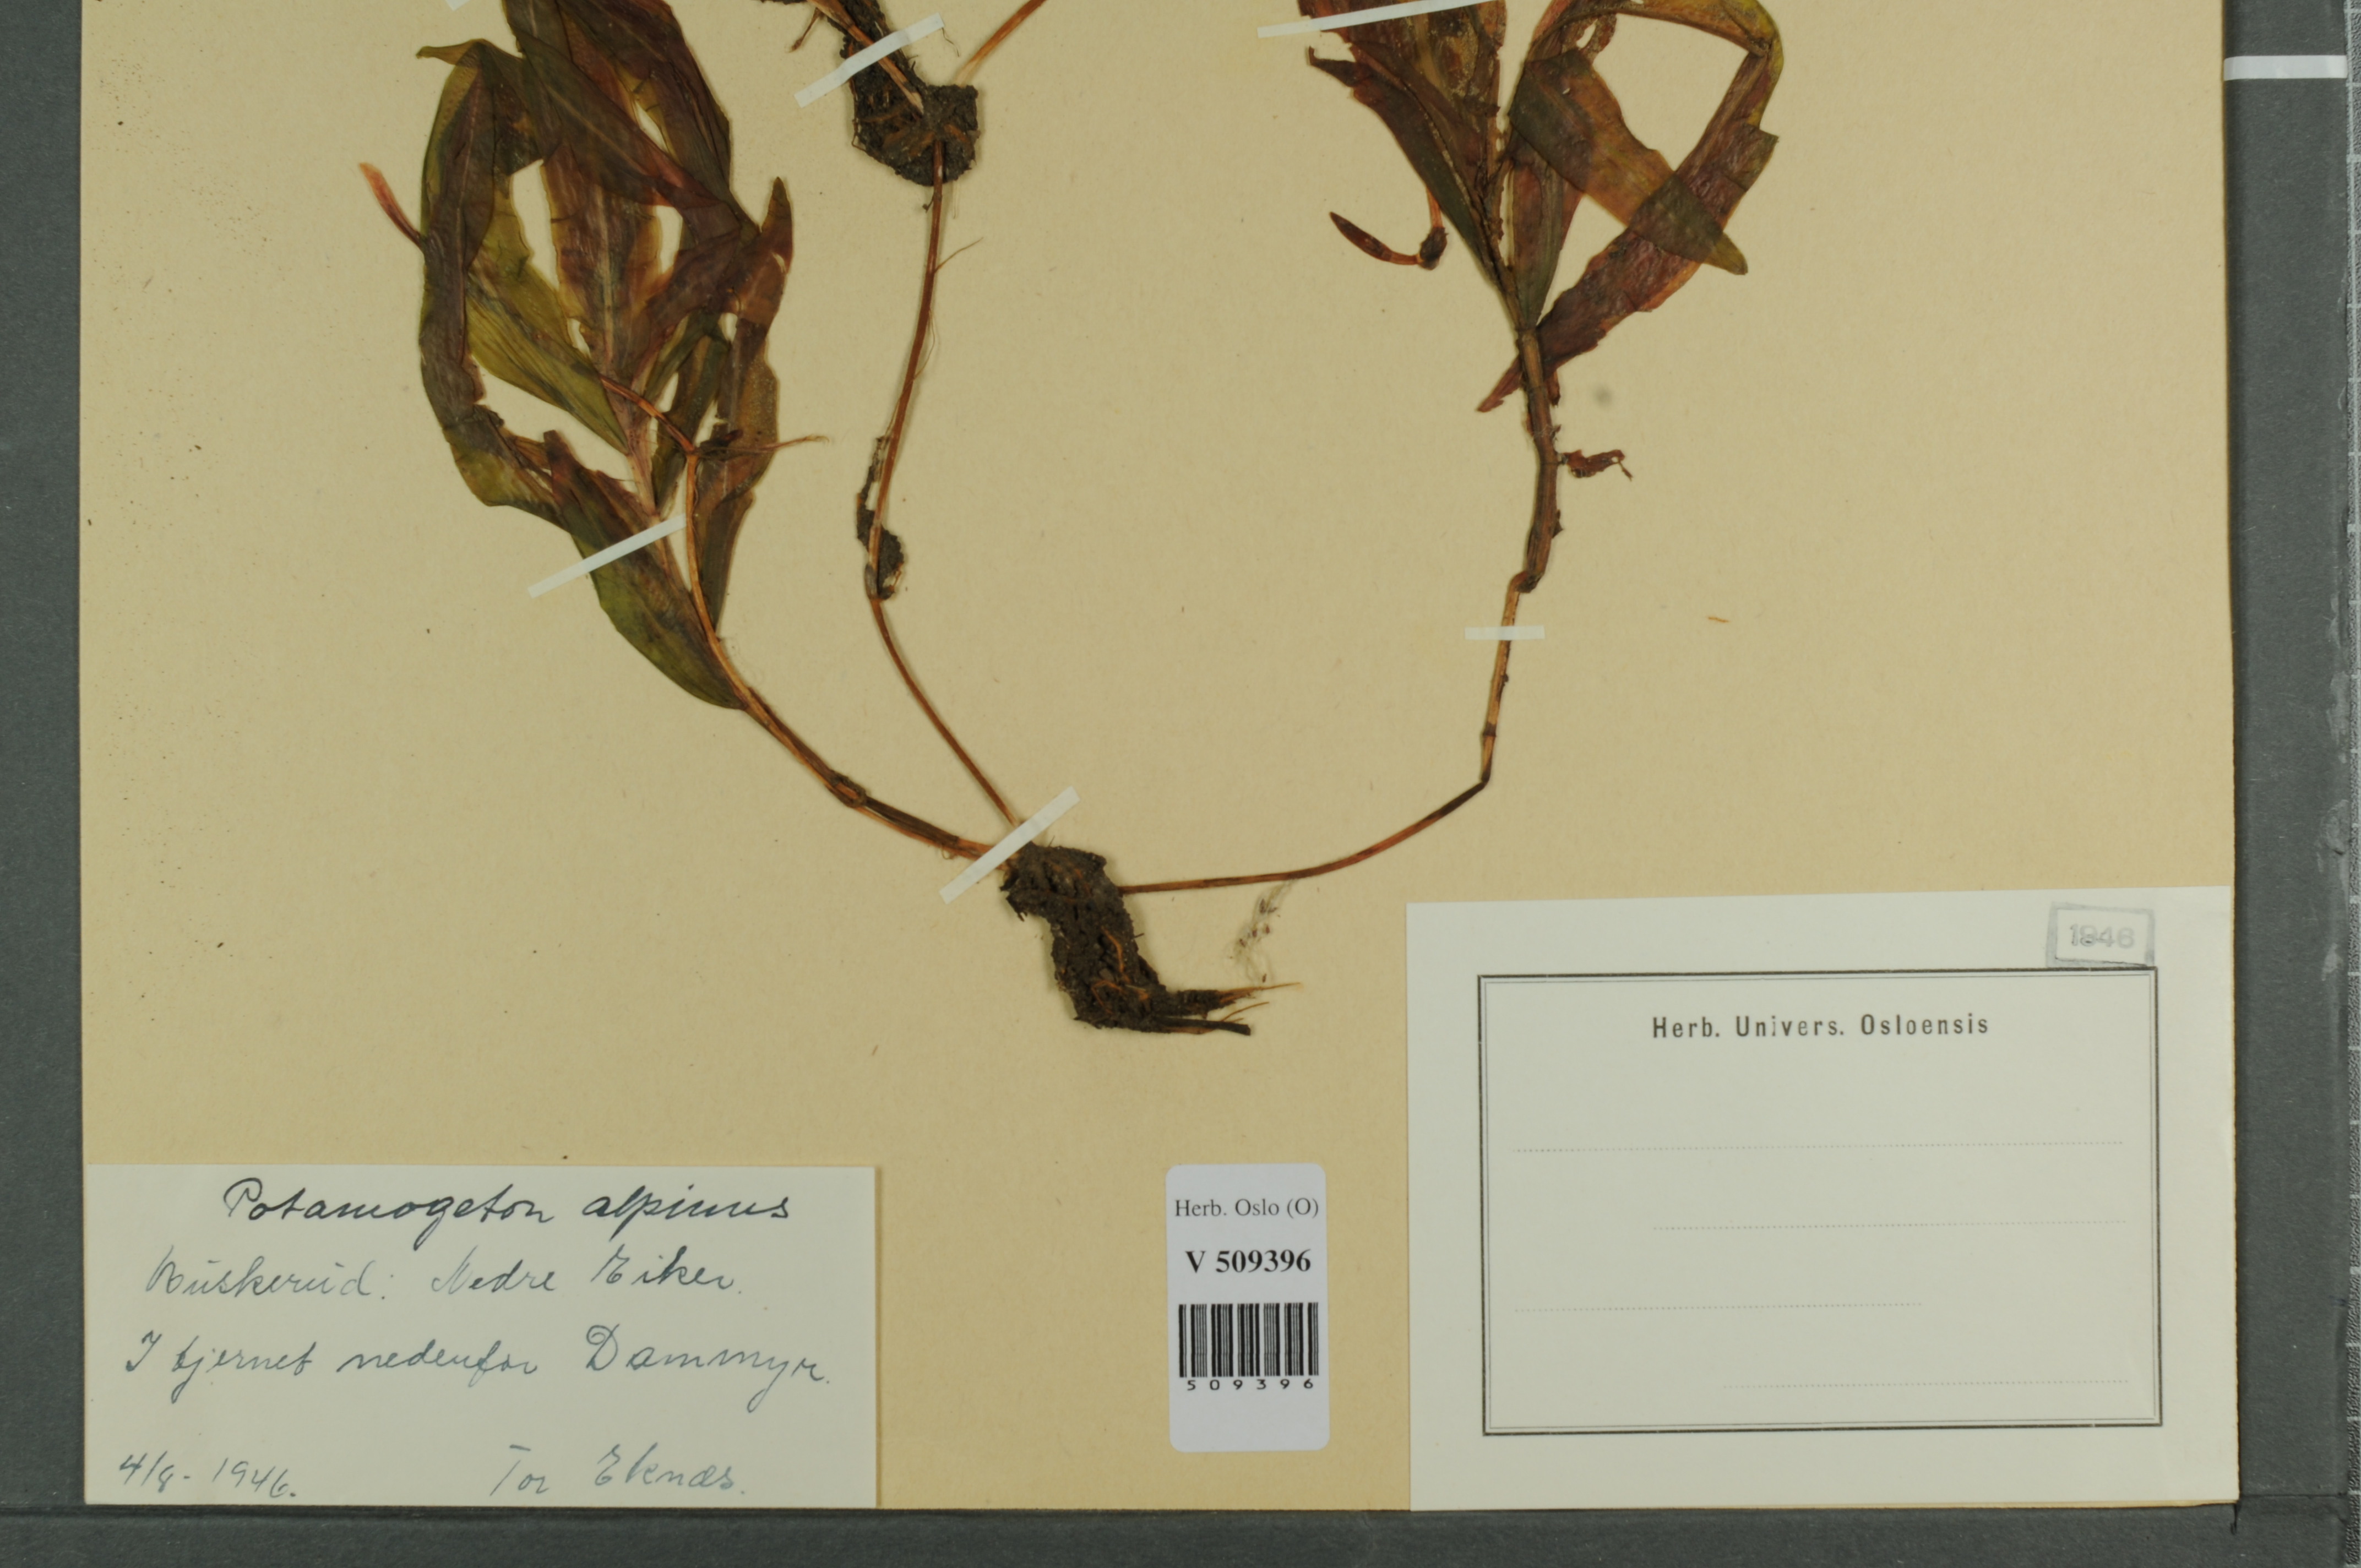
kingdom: Plantae
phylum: Tracheophyta
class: Liliopsida
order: Alismatales
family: Potamogetonaceae
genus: Potamogeton
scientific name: Potamogeton alpinus
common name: Red pondweed
